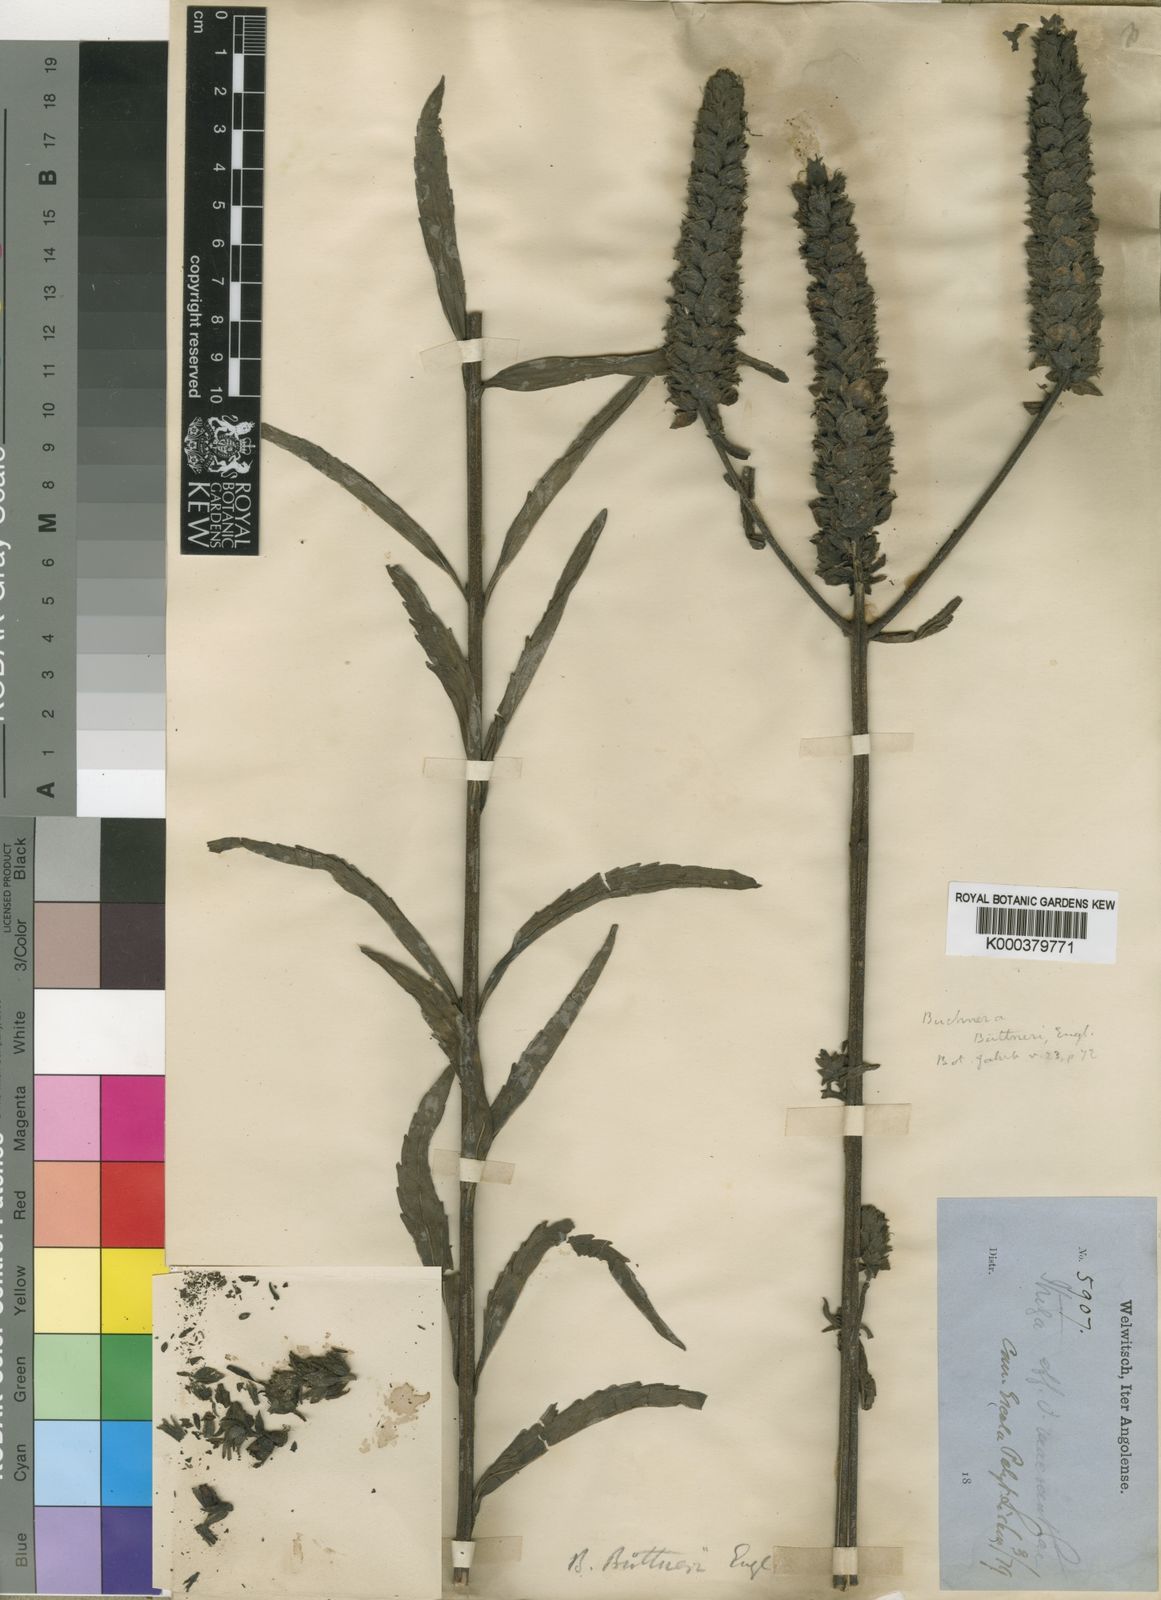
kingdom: Plantae
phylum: Tracheophyta
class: Magnoliopsida
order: Lamiales
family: Orobanchaceae
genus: Striga
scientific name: Striga macrantha
